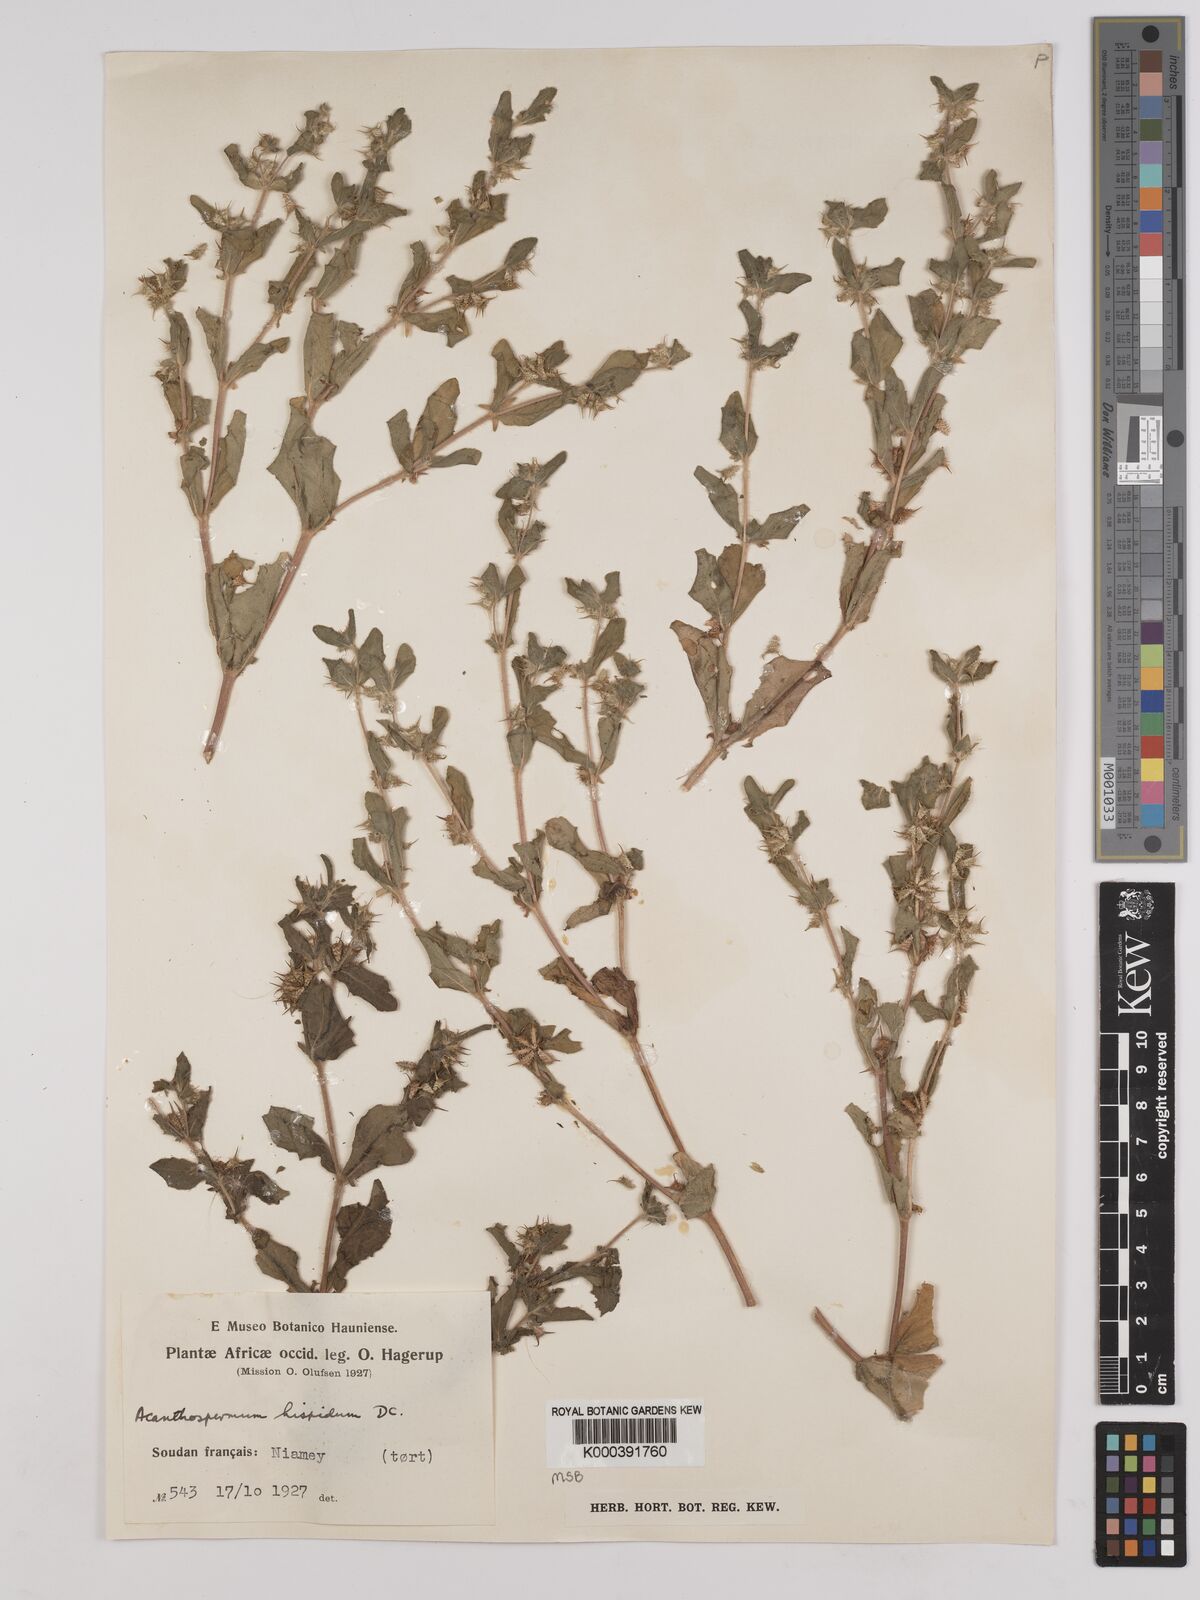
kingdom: Plantae
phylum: Tracheophyta
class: Magnoliopsida
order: Asterales
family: Asteraceae
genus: Acanthospermum
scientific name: Acanthospermum hispidum
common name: Hispid starbur
